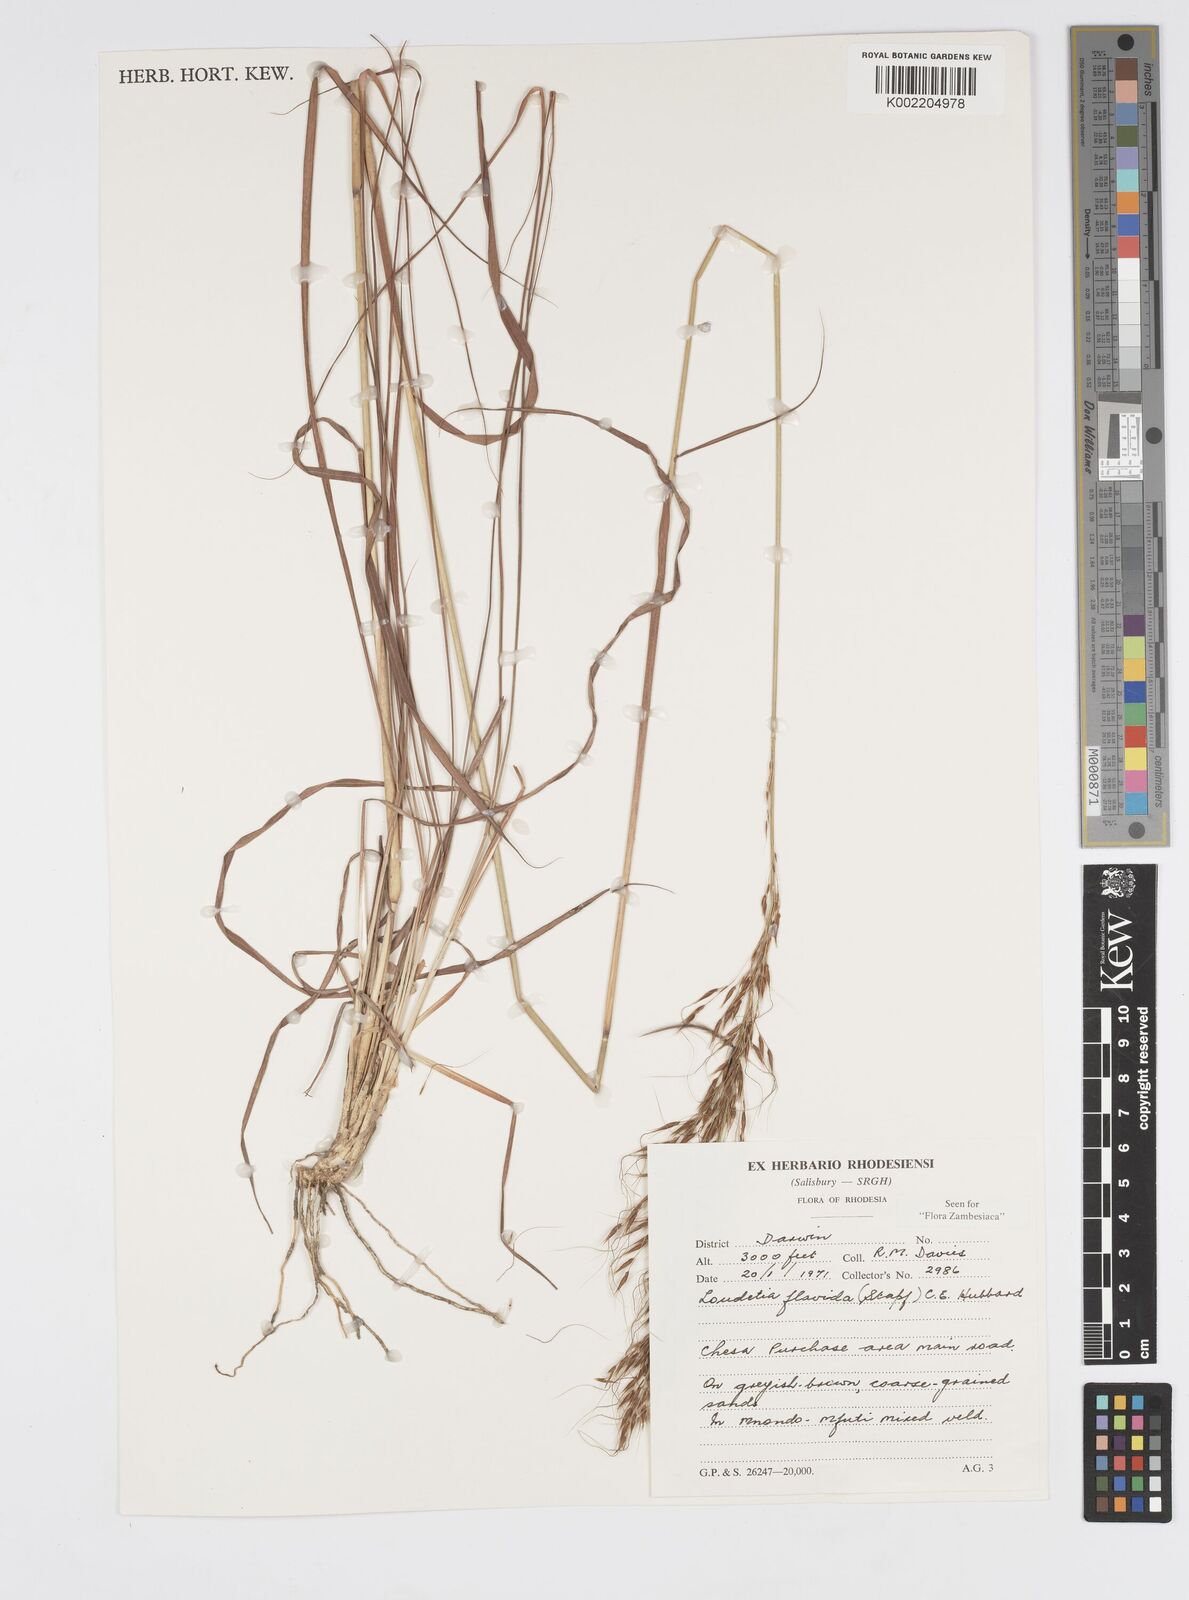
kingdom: Plantae
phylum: Tracheophyta
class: Liliopsida
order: Poales
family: Poaceae
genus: Loudetia
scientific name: Loudetia flavida
